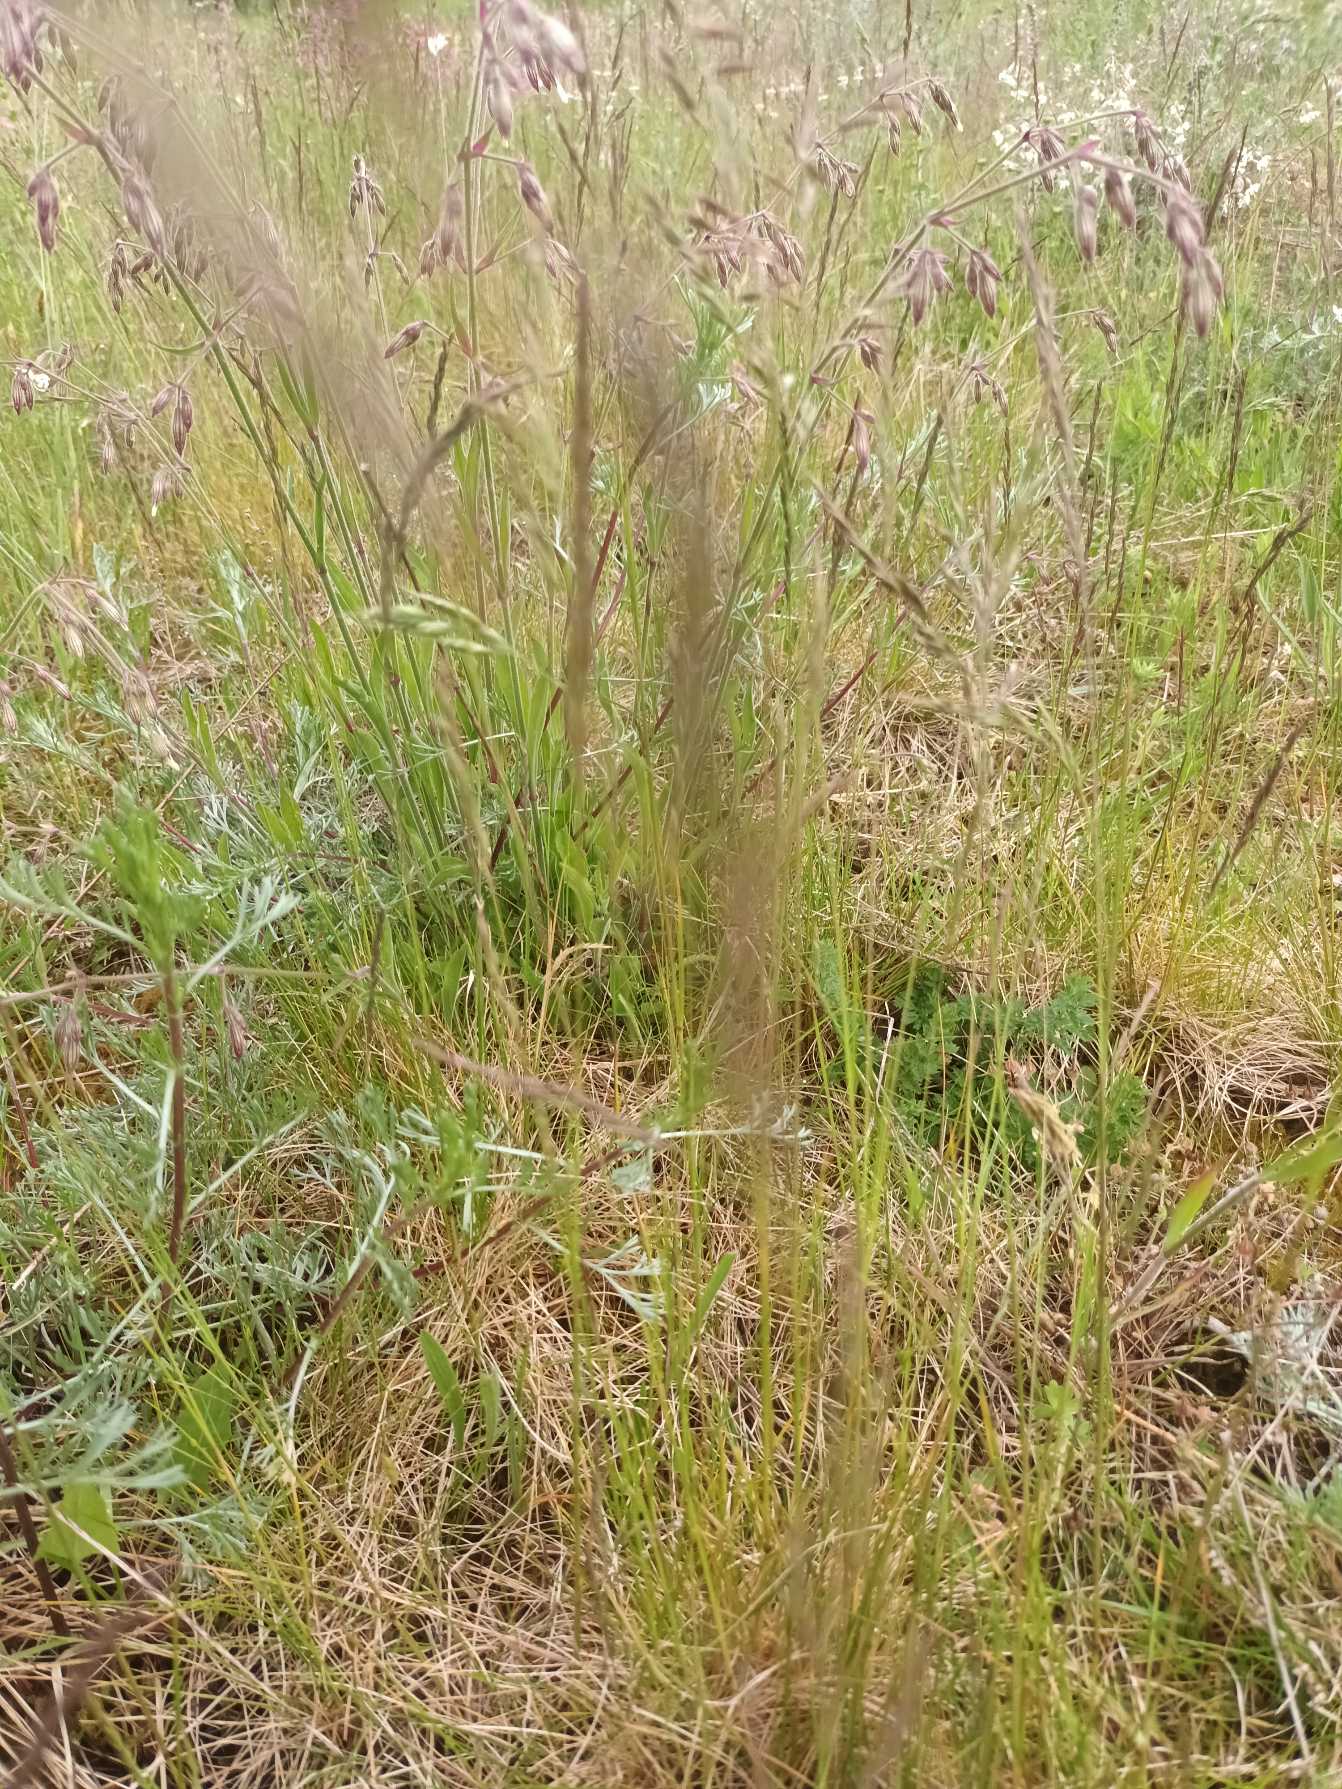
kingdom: Plantae
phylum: Tracheophyta
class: Liliopsida
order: Poales
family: Poaceae
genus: Festuca
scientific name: Festuca trachyphylla
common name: Bakke-svingel
